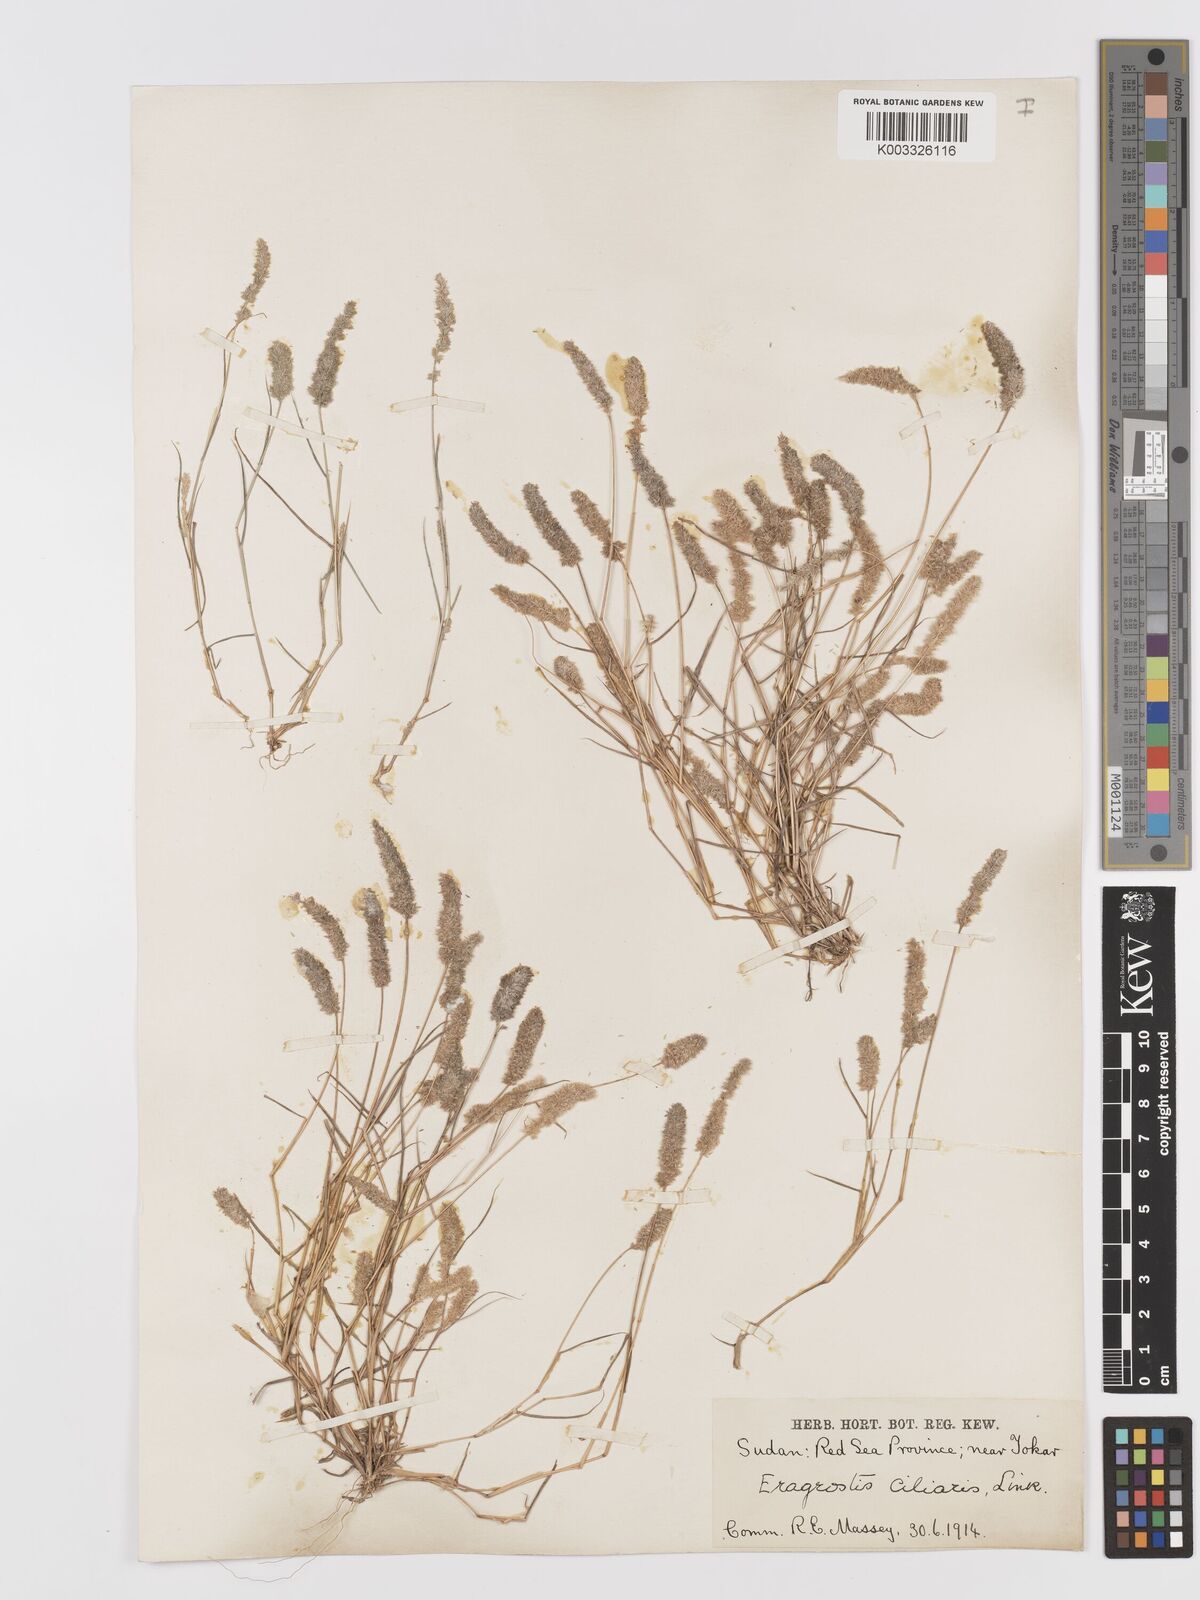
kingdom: Plantae
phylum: Tracheophyta
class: Liliopsida
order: Poales
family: Poaceae
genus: Eragrostis
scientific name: Eragrostis ciliaris
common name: Gophertail lovegrass
